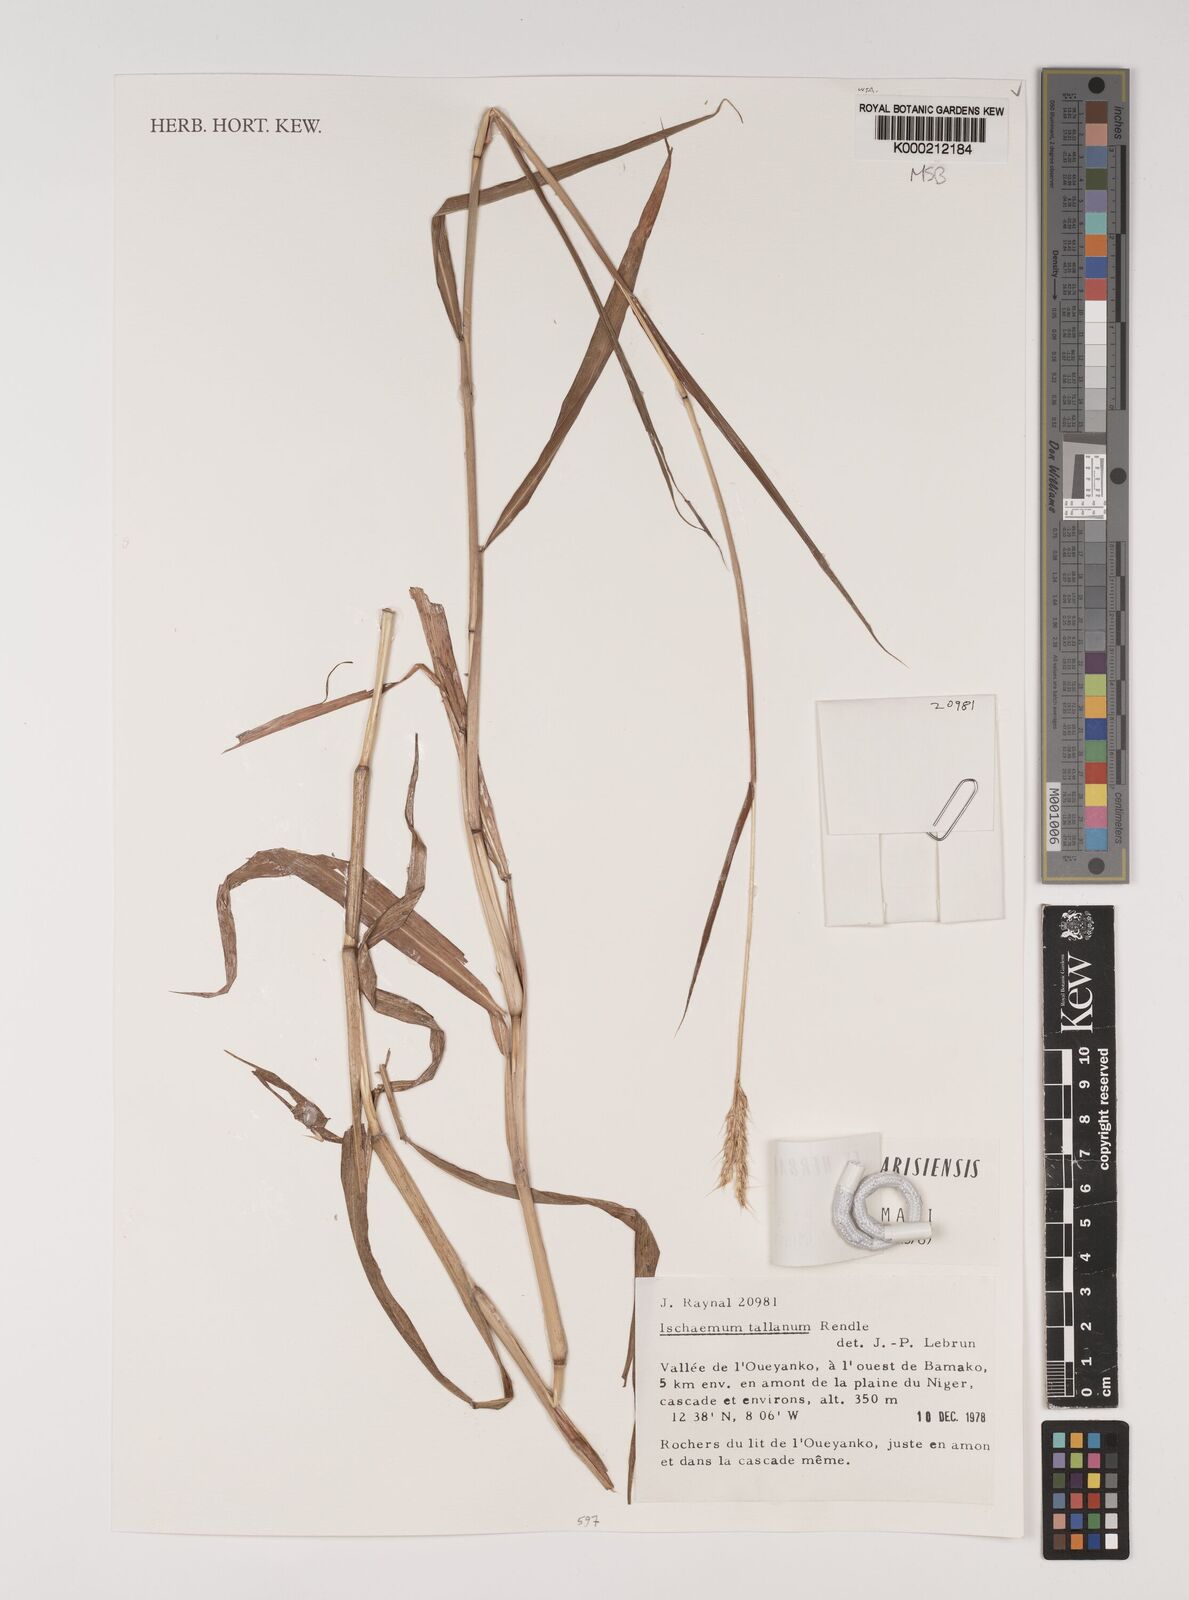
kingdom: Plantae
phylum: Tracheophyta
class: Liliopsida
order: Poales
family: Poaceae
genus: Ischaemum
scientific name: Ischaemum polystachyum
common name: Paddle grass
